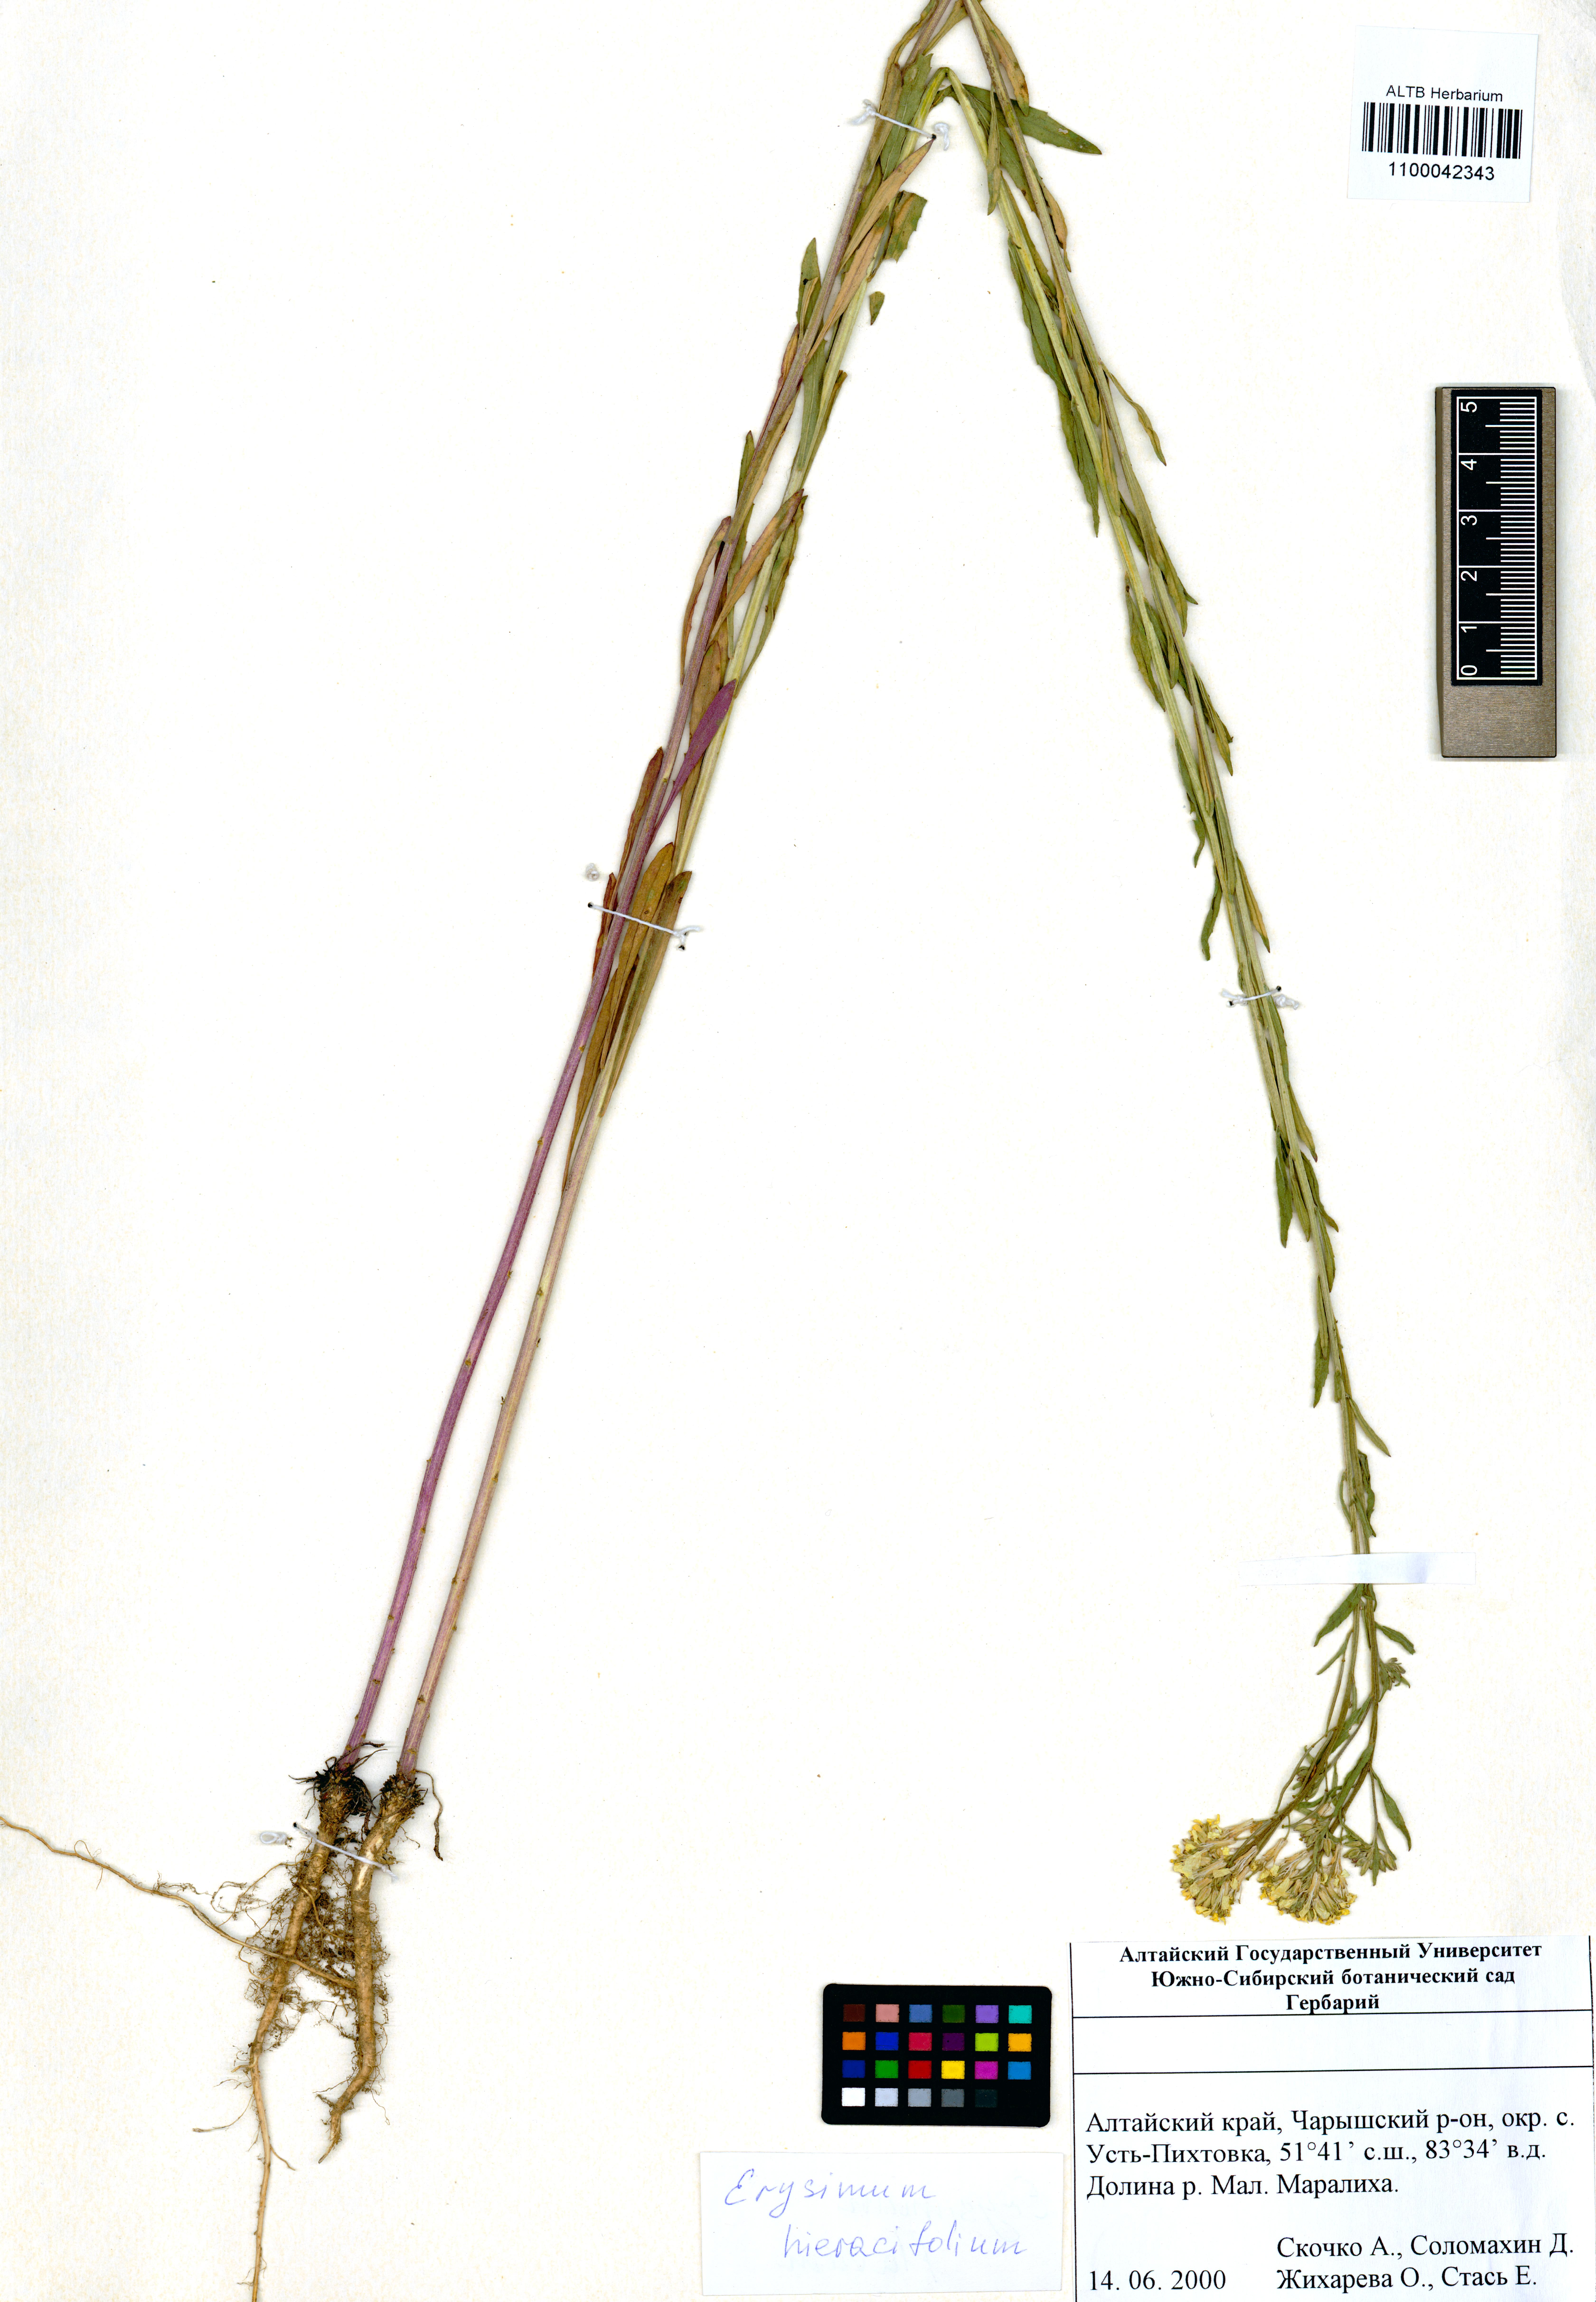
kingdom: Plantae
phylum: Tracheophyta
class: Magnoliopsida
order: Brassicales
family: Brassicaceae
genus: Erysimum
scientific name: Erysimum hieraciifolium
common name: European wallflower
